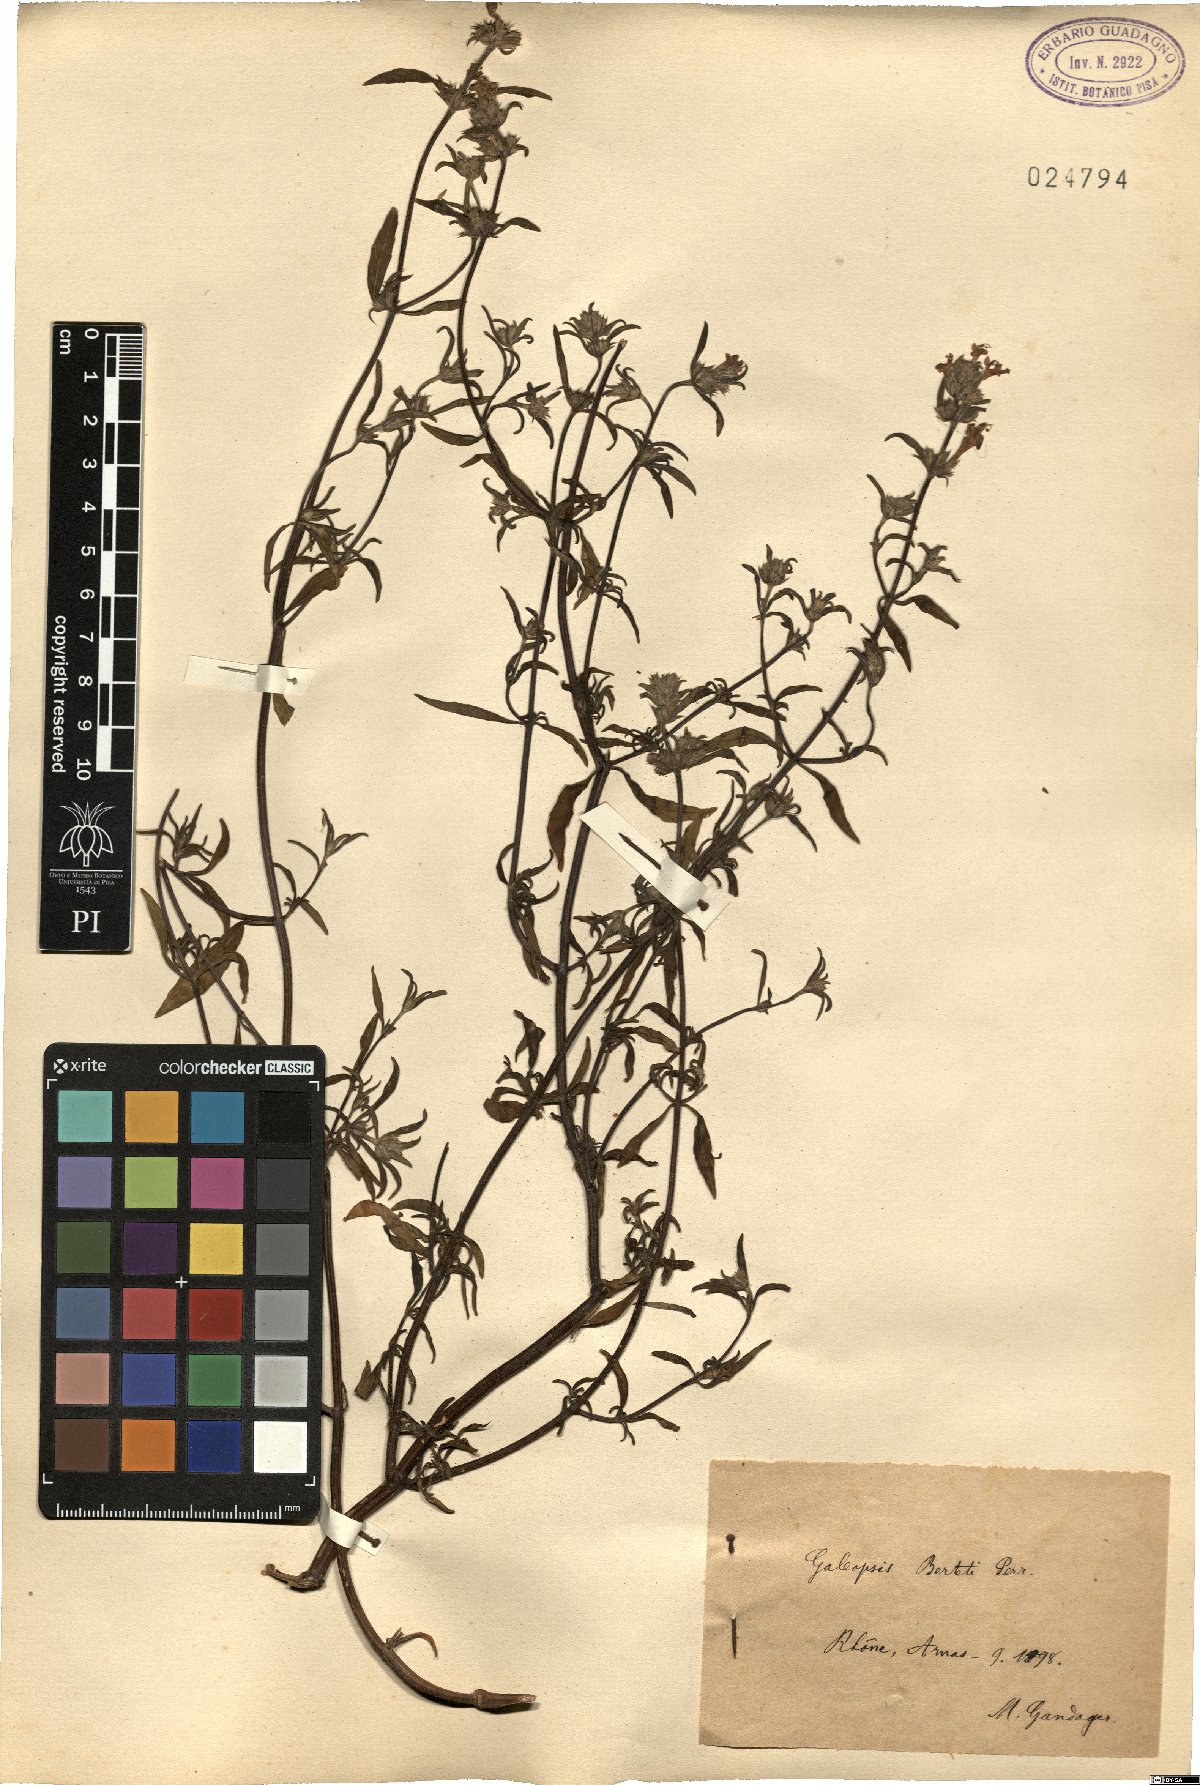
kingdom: Plantae
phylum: Tracheophyta
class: Magnoliopsida
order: Lamiales
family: Lamiaceae
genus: Galeopsis
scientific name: Galeopsis angustifolia
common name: Red hemp-nettle
